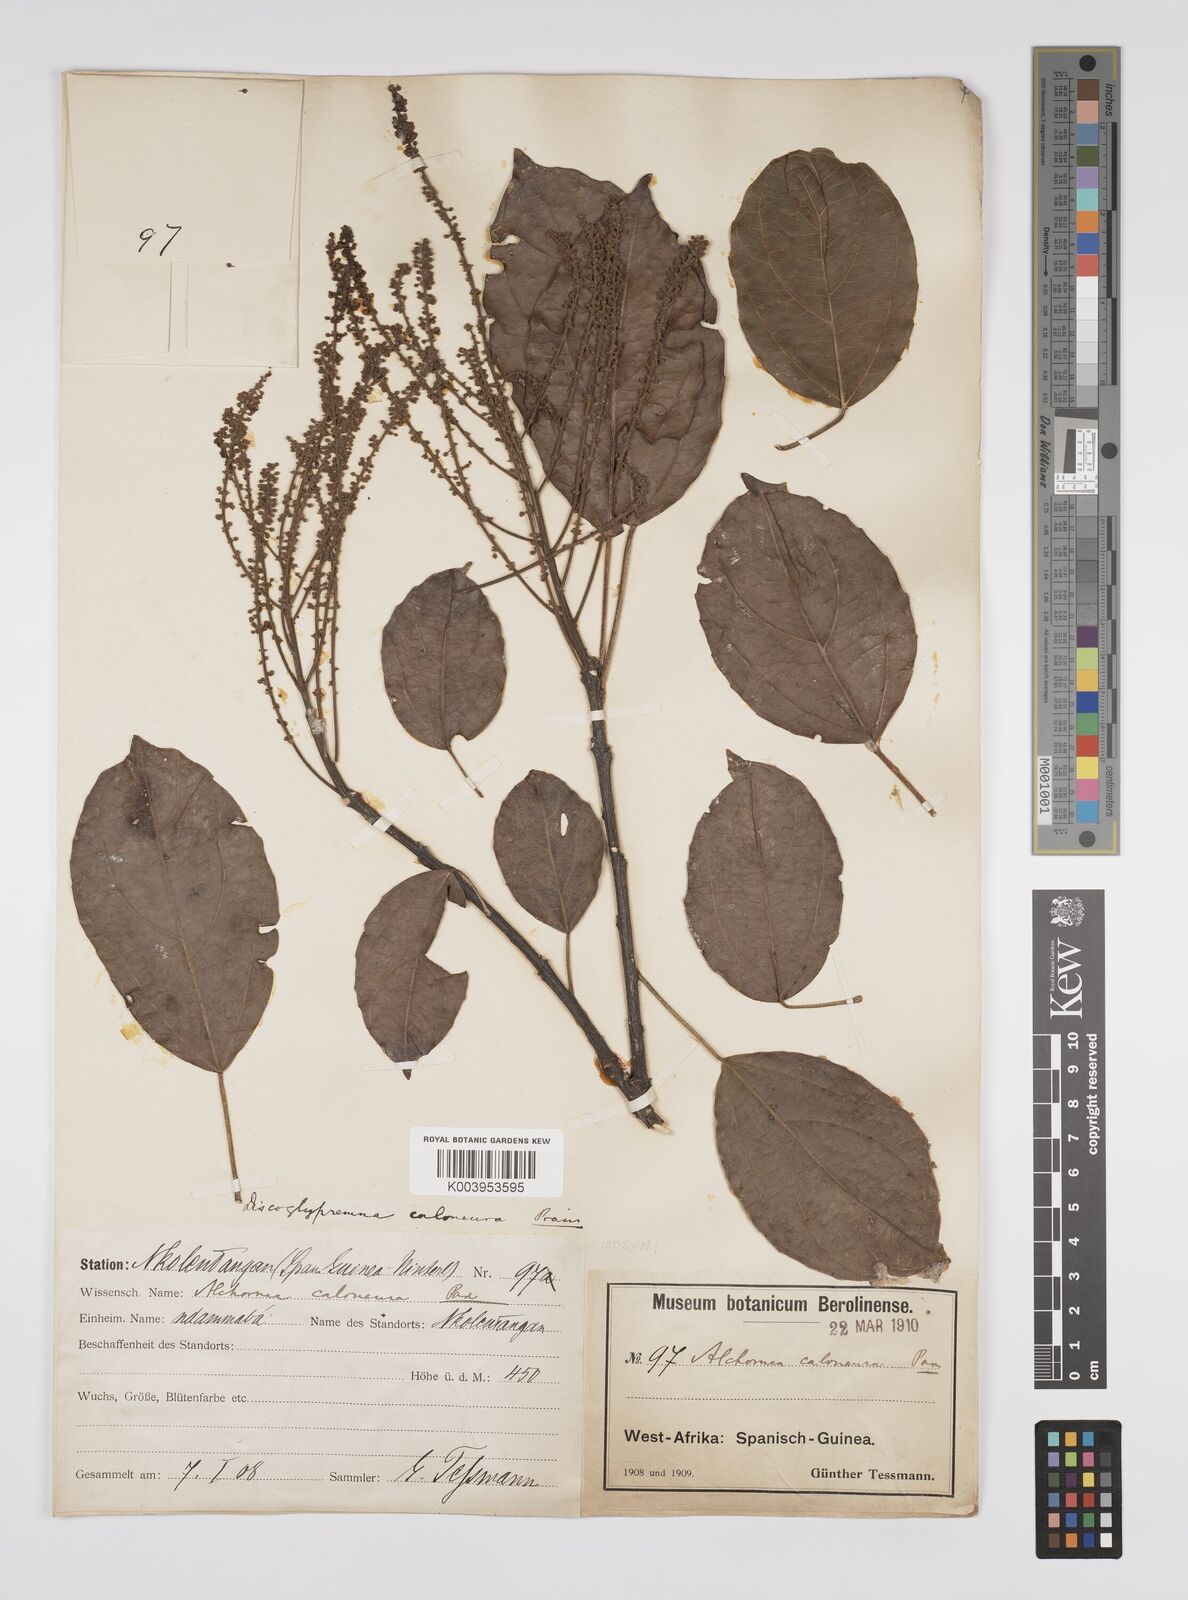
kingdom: Plantae
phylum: Tracheophyta
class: Magnoliopsida
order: Malpighiales
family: Euphorbiaceae
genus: Discoglypremna
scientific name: Discoglypremna caloneura
